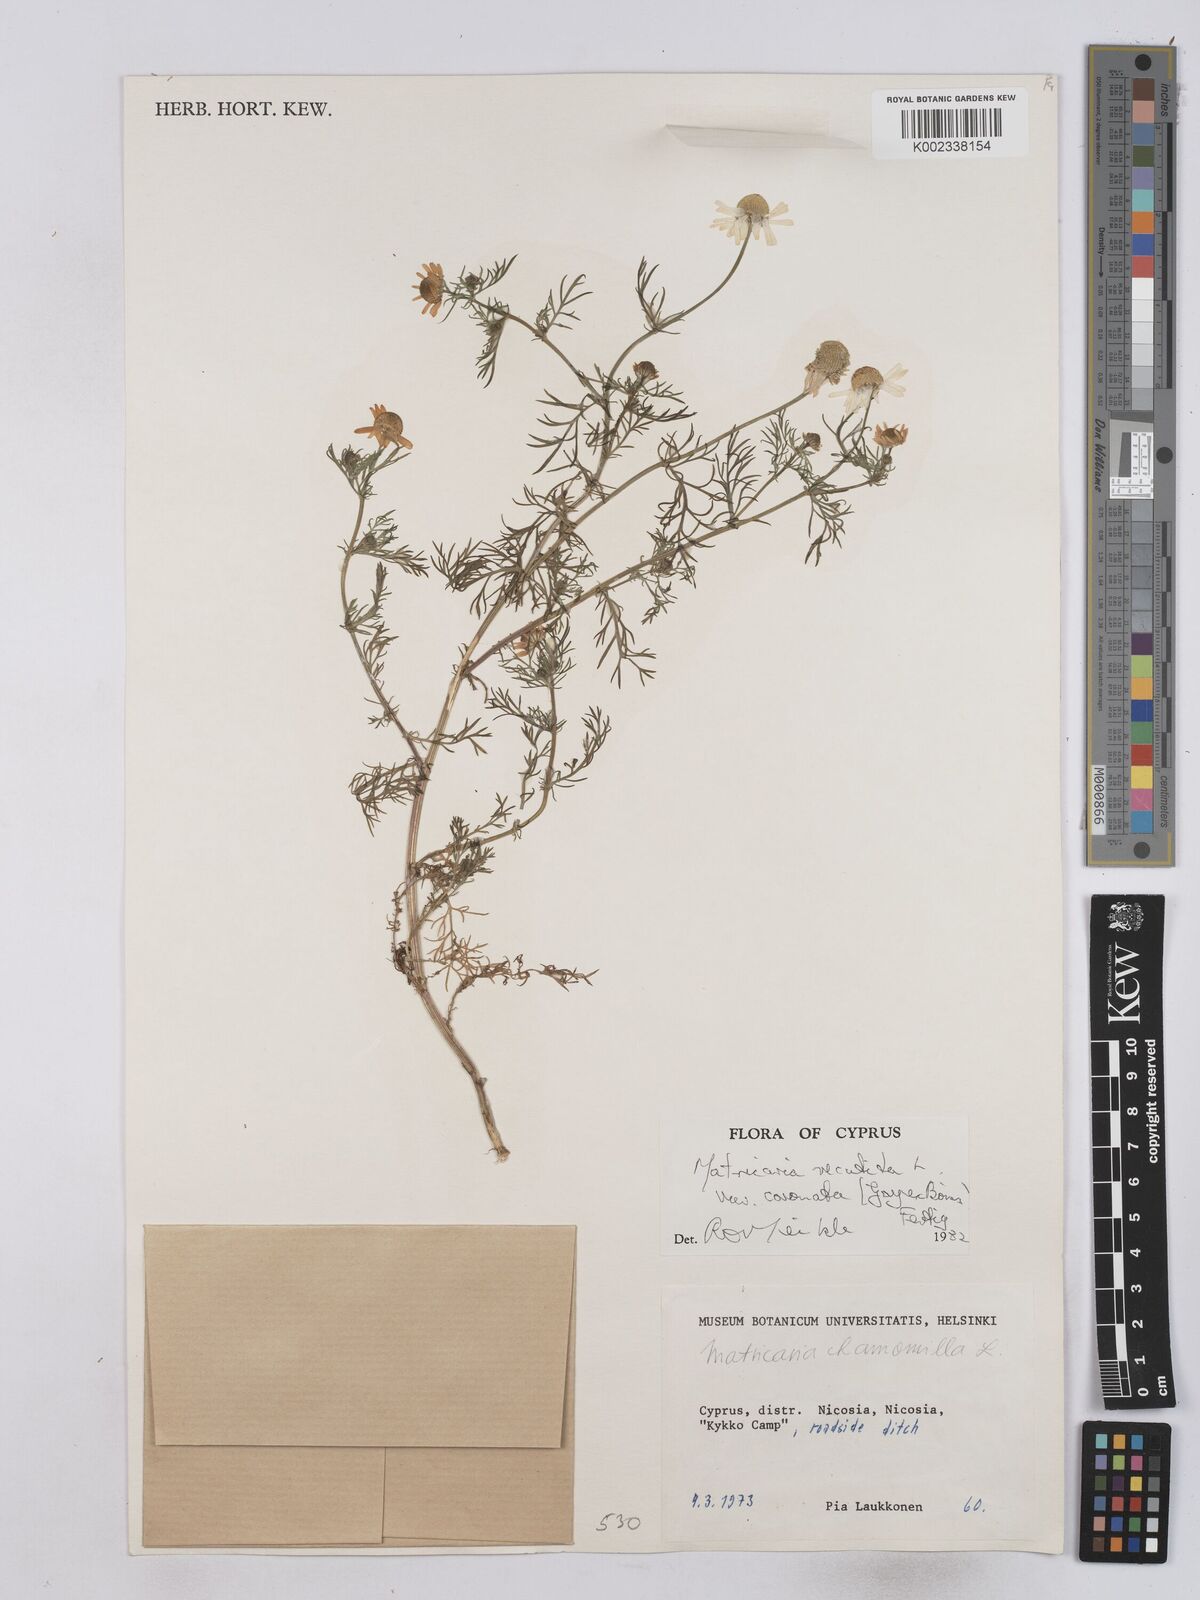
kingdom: Plantae
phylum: Tracheophyta
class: Magnoliopsida
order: Asterales
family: Asteraceae
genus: Matricaria
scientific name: Matricaria chamomilla
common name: Scented mayweed
